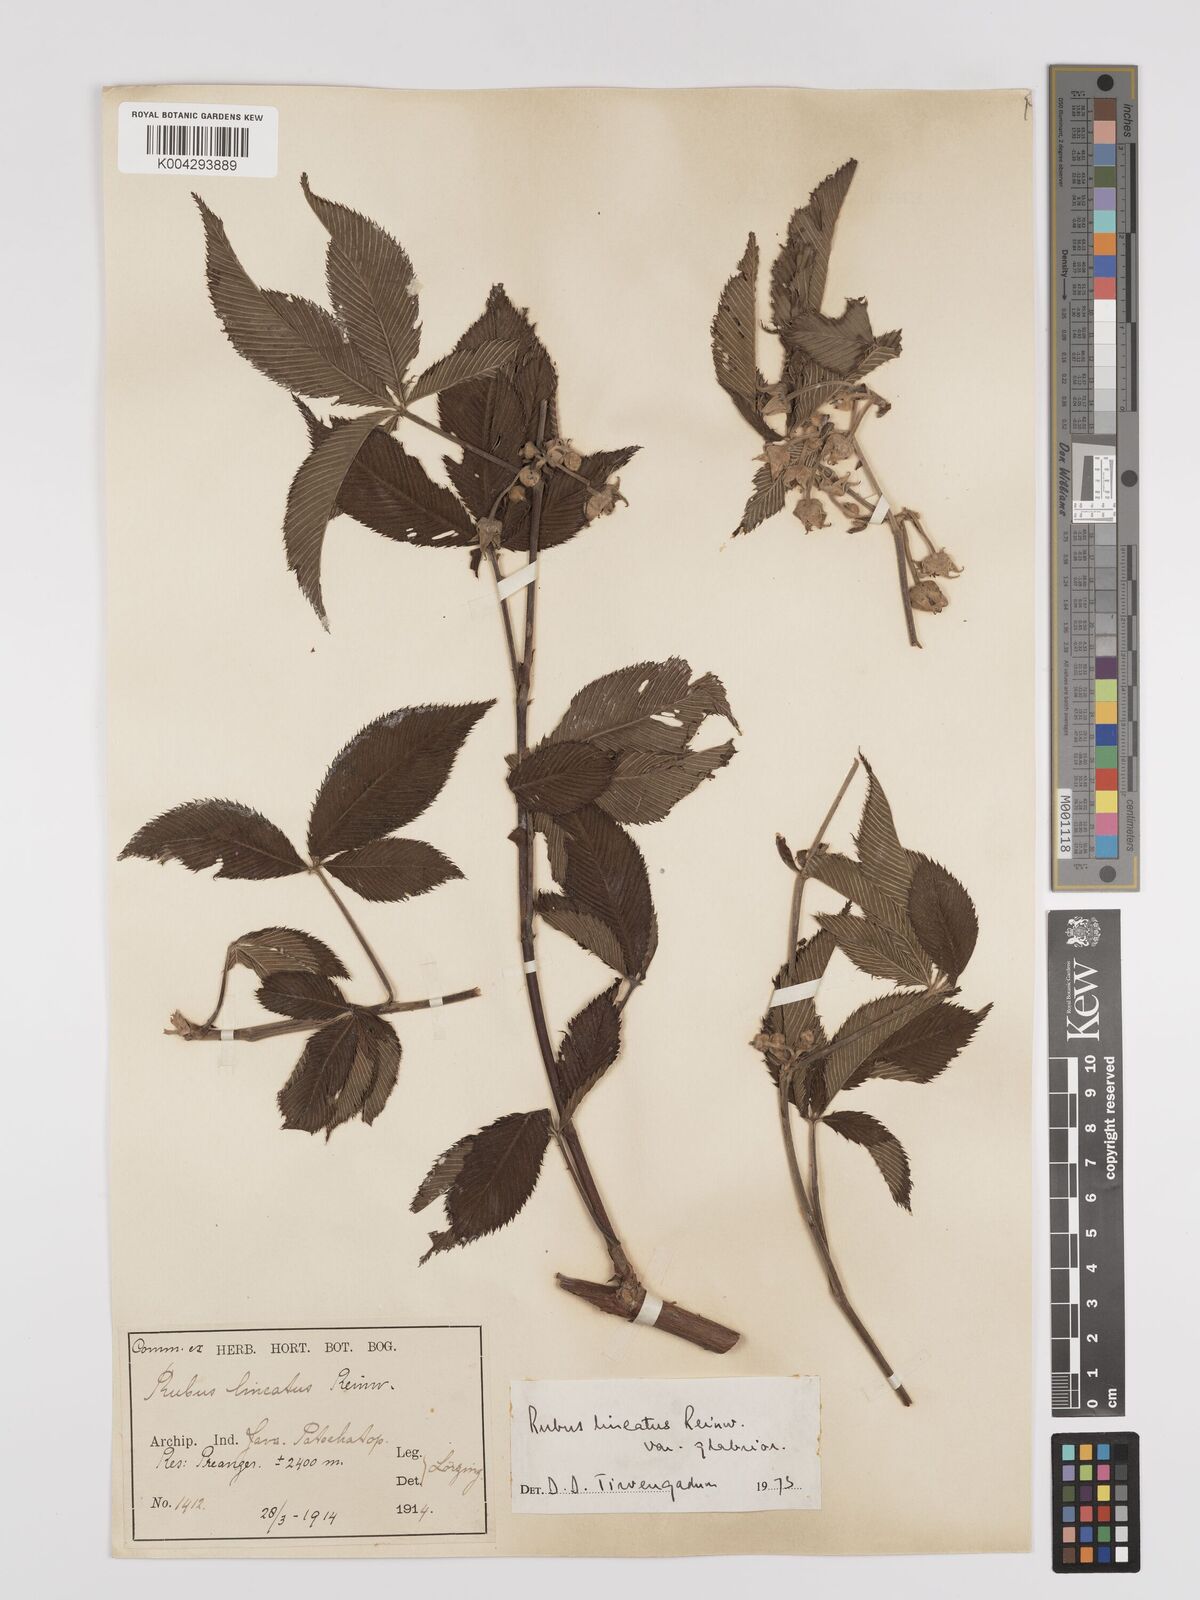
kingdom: Plantae
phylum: Tracheophyta
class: Magnoliopsida
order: Rosales
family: Rosaceae
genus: Rubus
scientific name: Rubus lineatus
